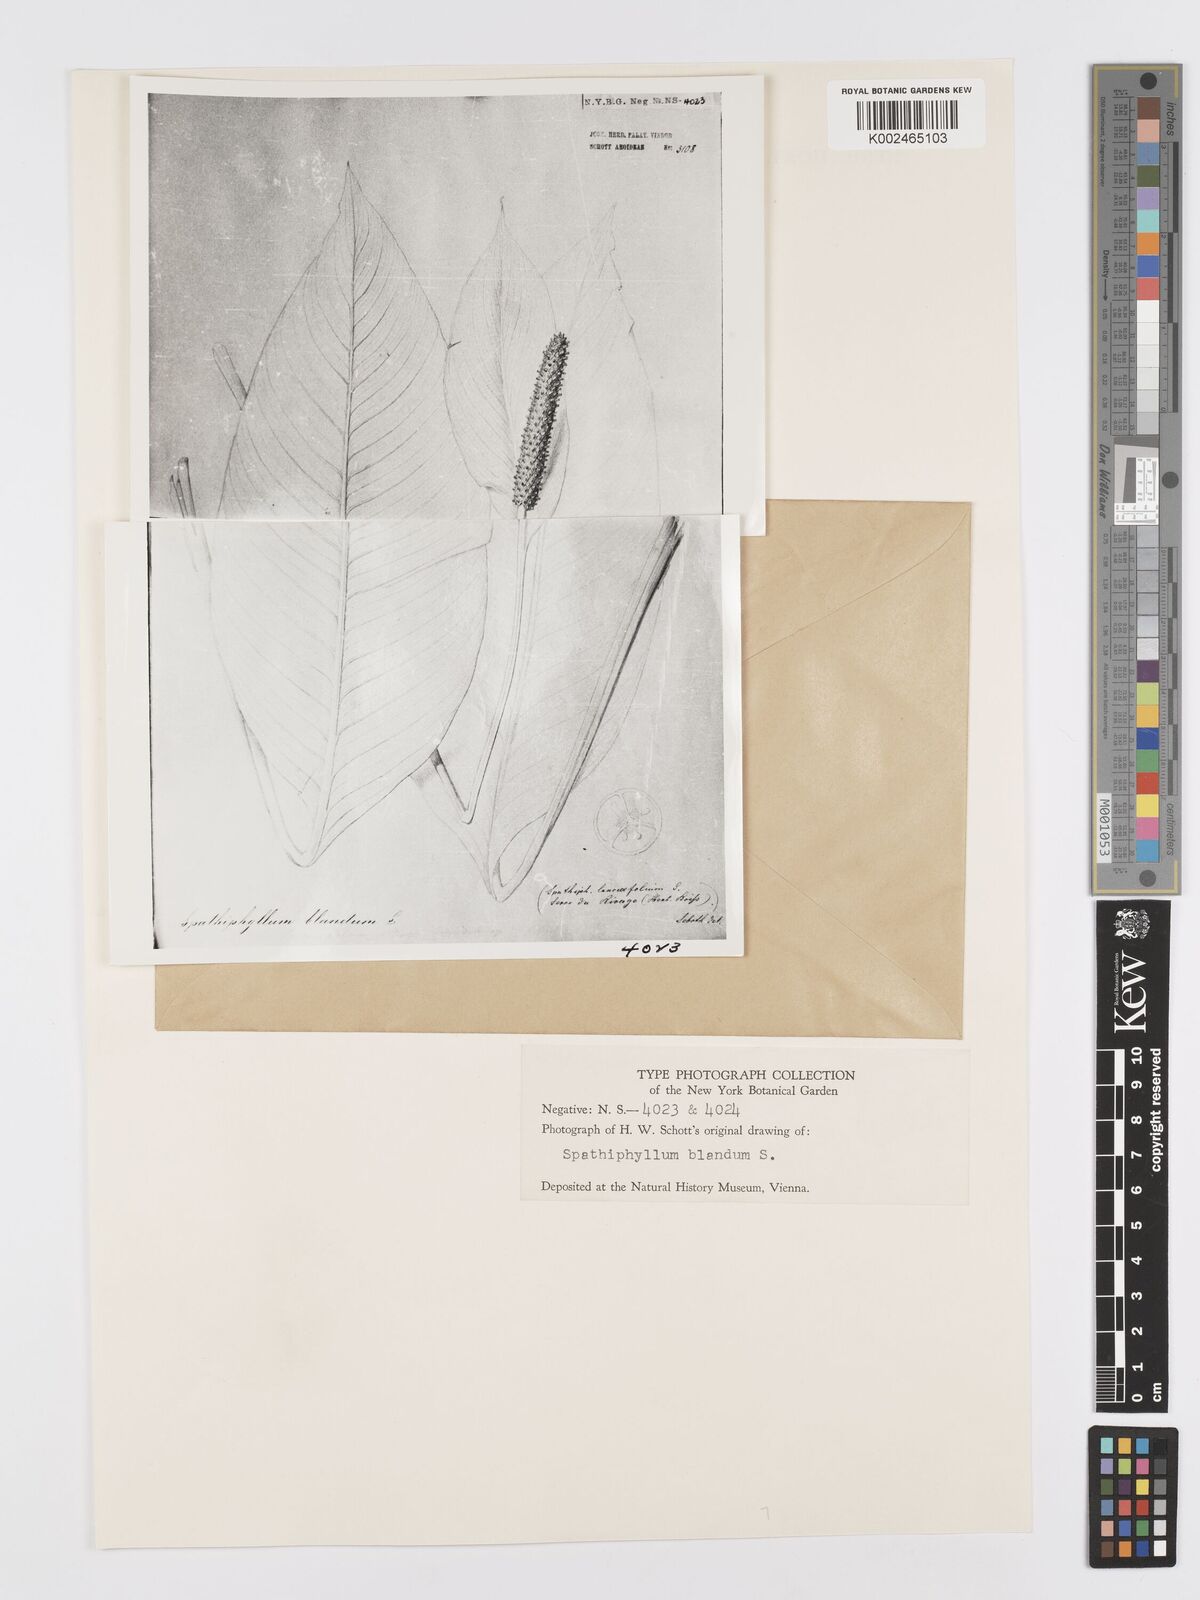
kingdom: Plantae
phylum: Tracheophyta
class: Liliopsida
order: Alismatales
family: Araceae
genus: Spathiphyllum
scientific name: Spathiphyllum blandum
